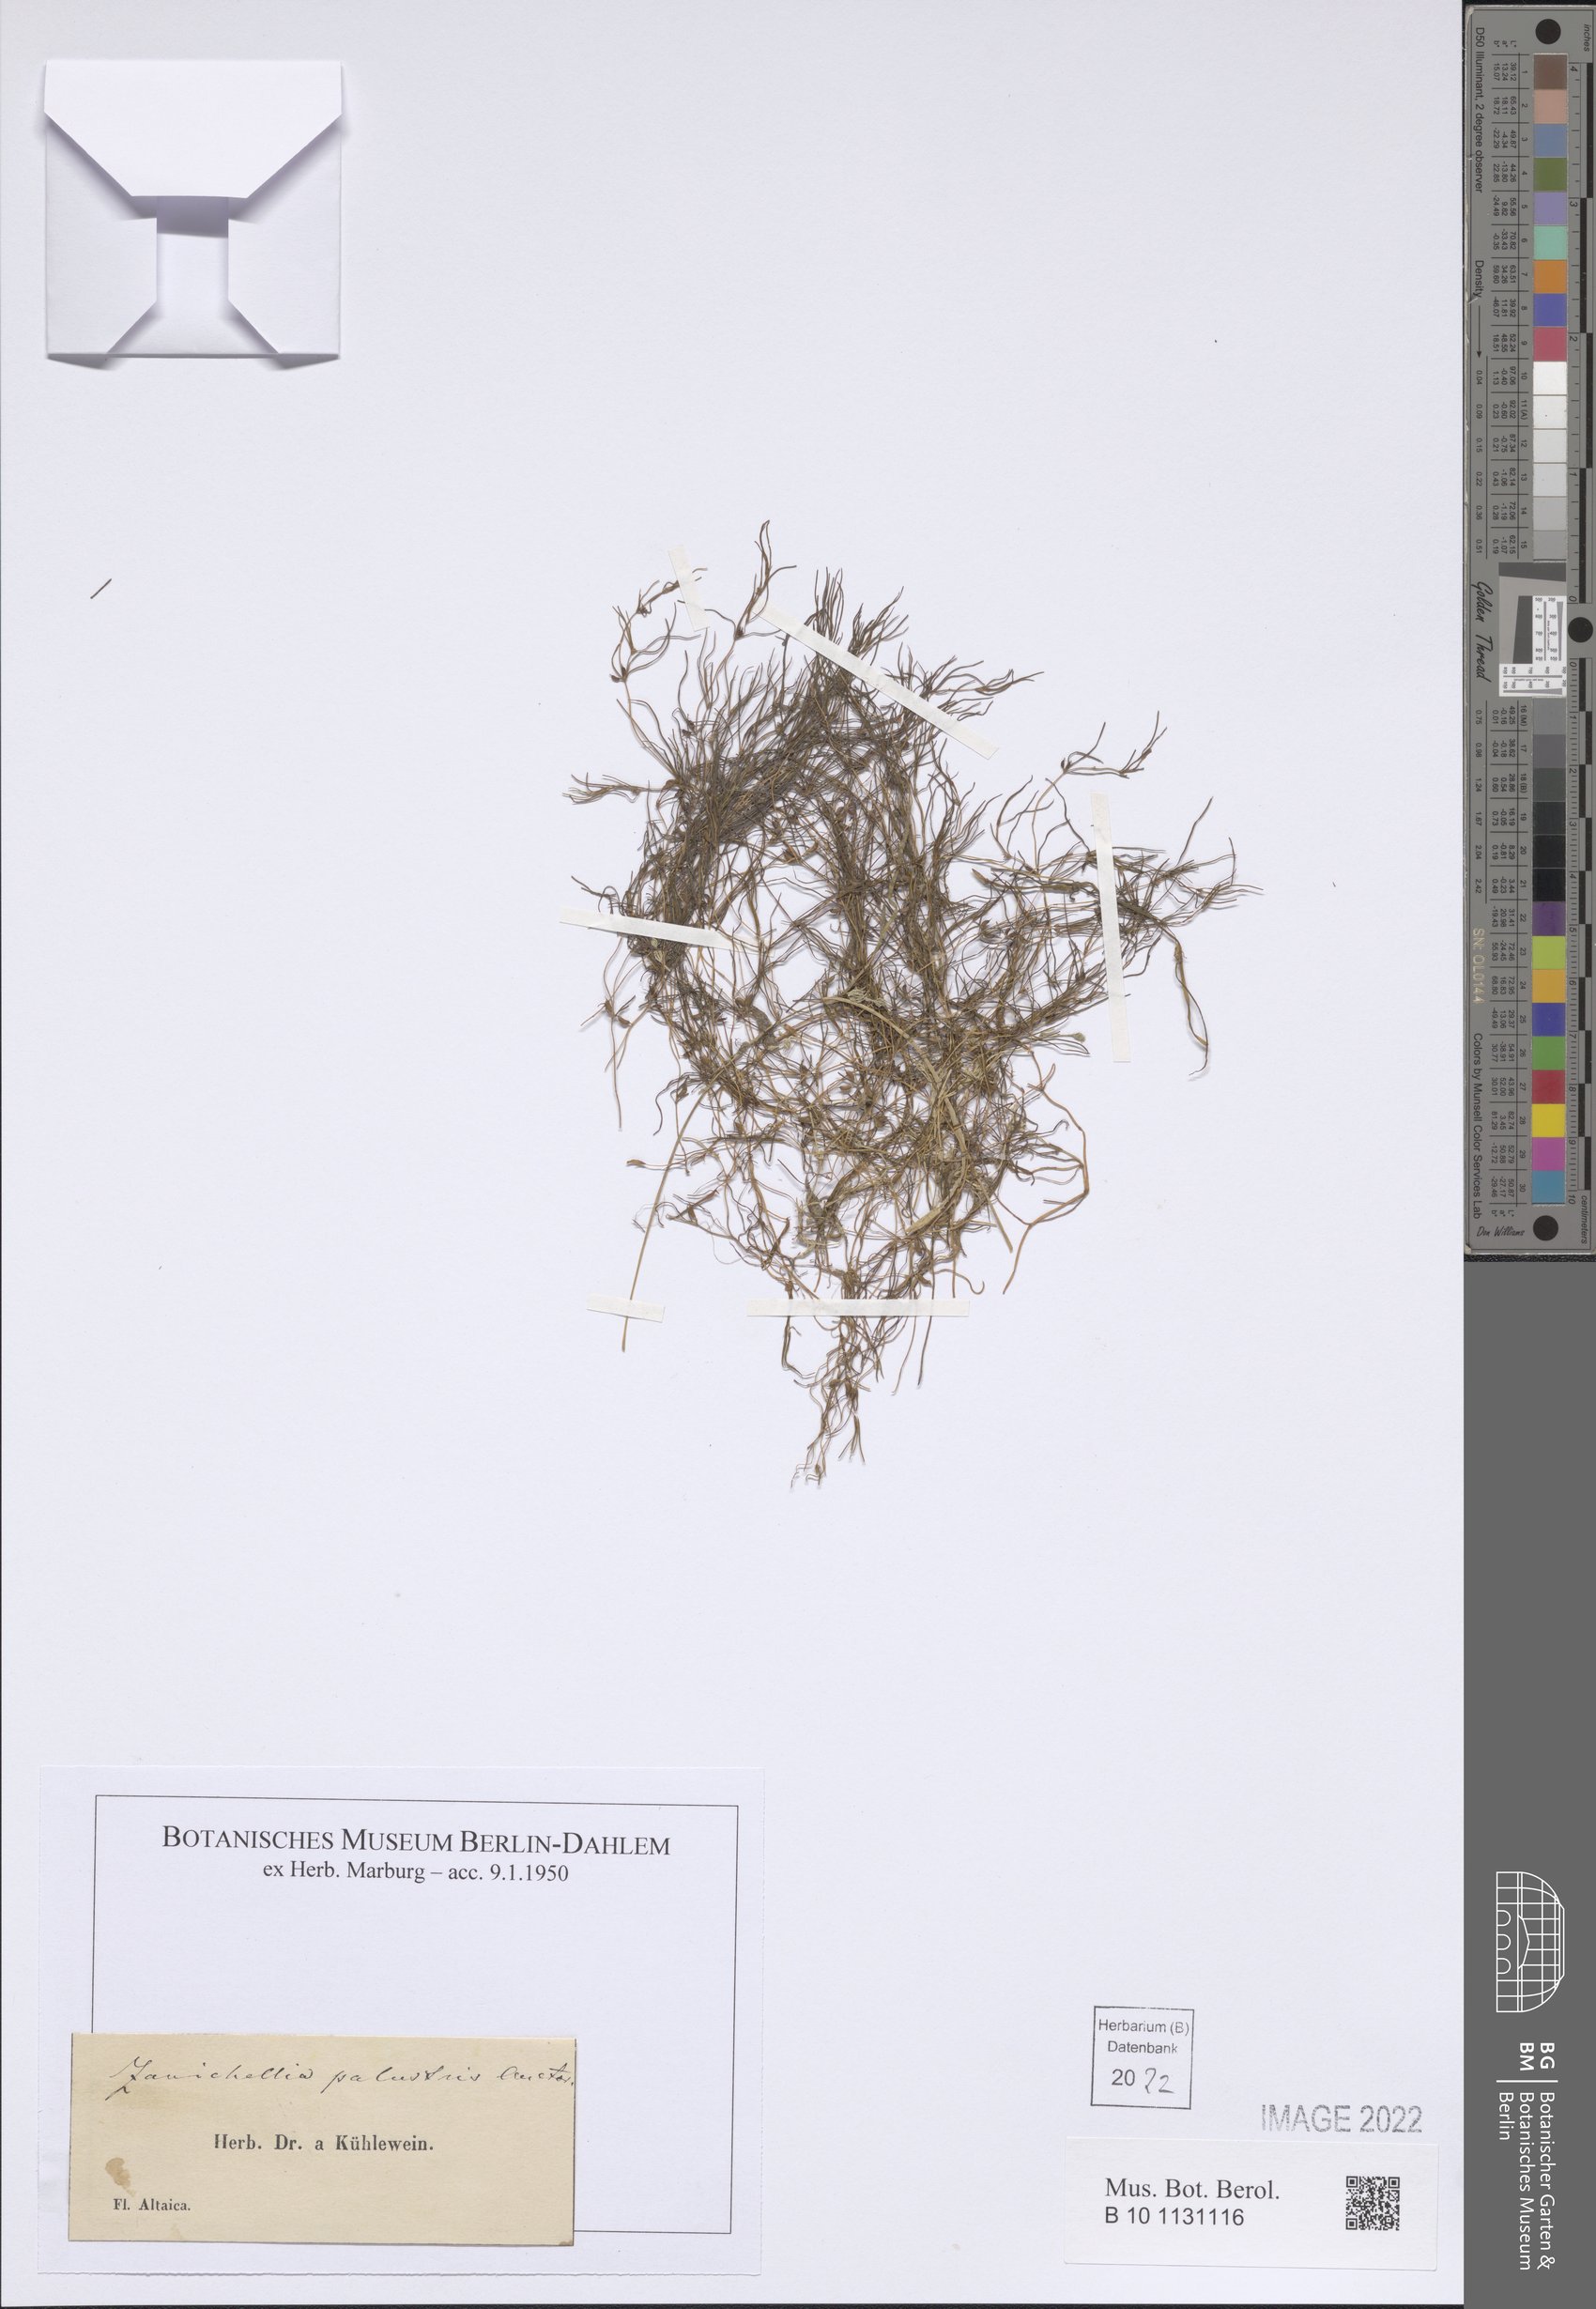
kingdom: Plantae
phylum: Tracheophyta
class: Liliopsida
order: Alismatales
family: Potamogetonaceae
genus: Zannichellia
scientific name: Zannichellia palustris
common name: Horned pondweed
